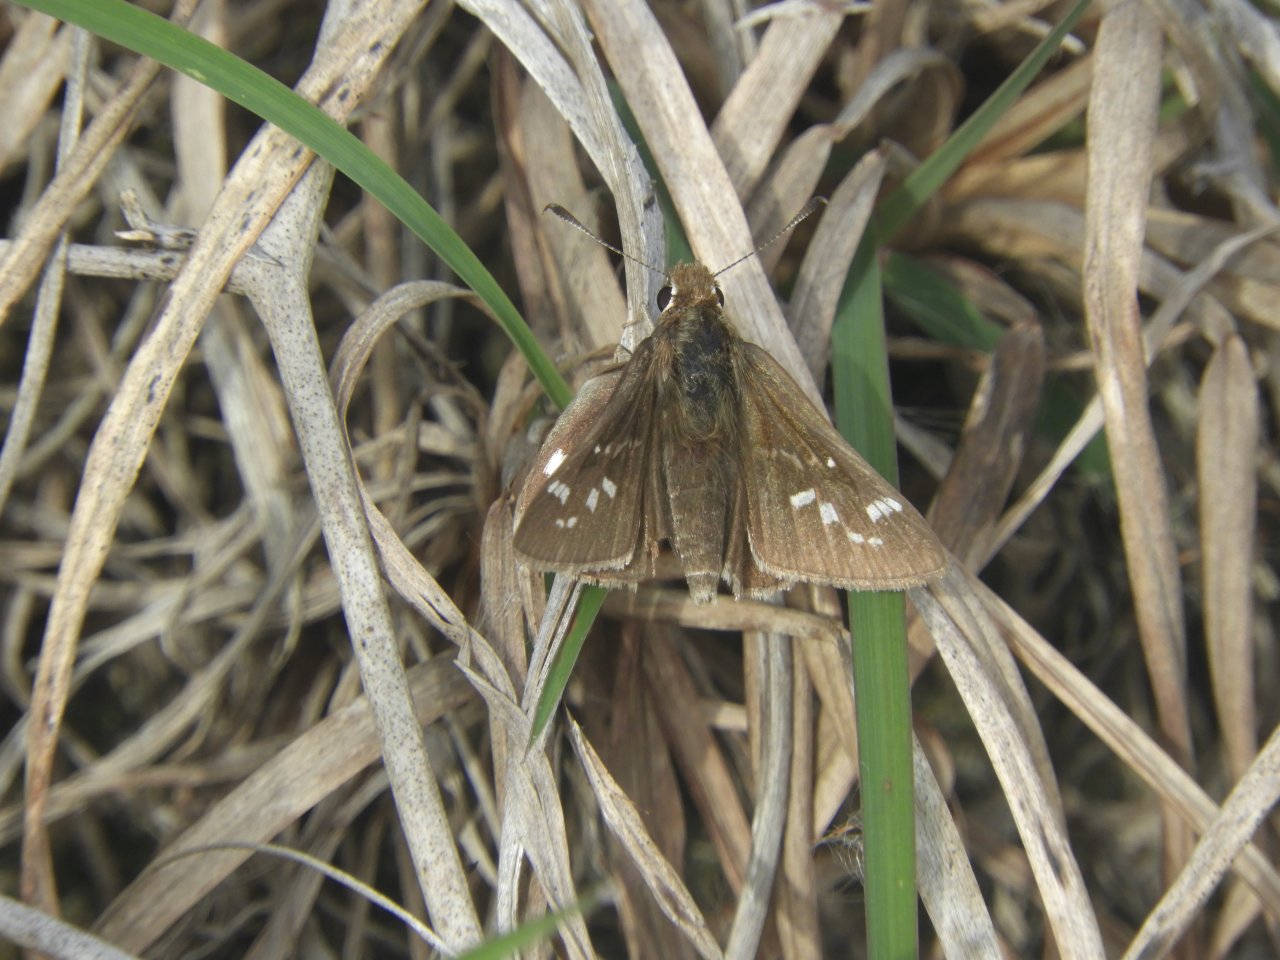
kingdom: Animalia
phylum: Arthropoda
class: Insecta
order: Lepidoptera
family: Hesperiidae
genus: Atrytonopsis
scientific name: Atrytonopsis quinteri
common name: Crystal Skipper
